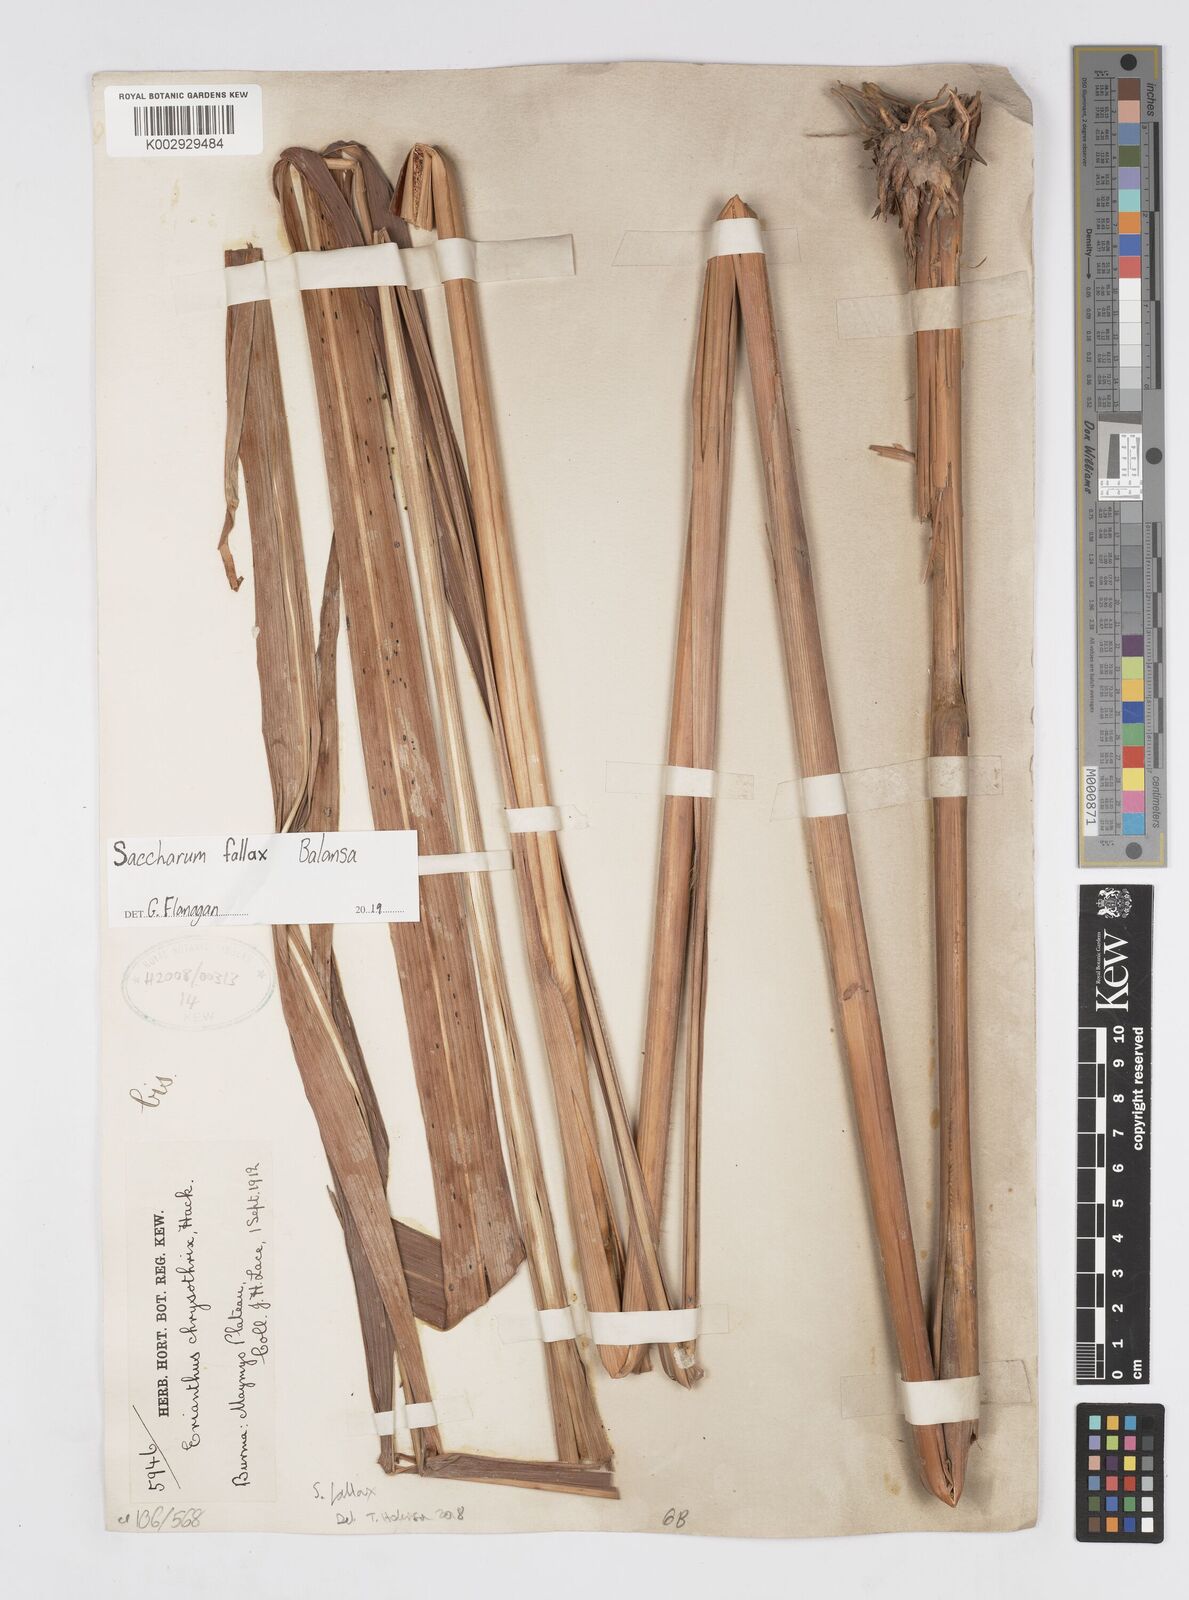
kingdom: Plantae
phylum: Tracheophyta
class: Liliopsida
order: Poales
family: Poaceae
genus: Narenga
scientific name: Narenga fallax
